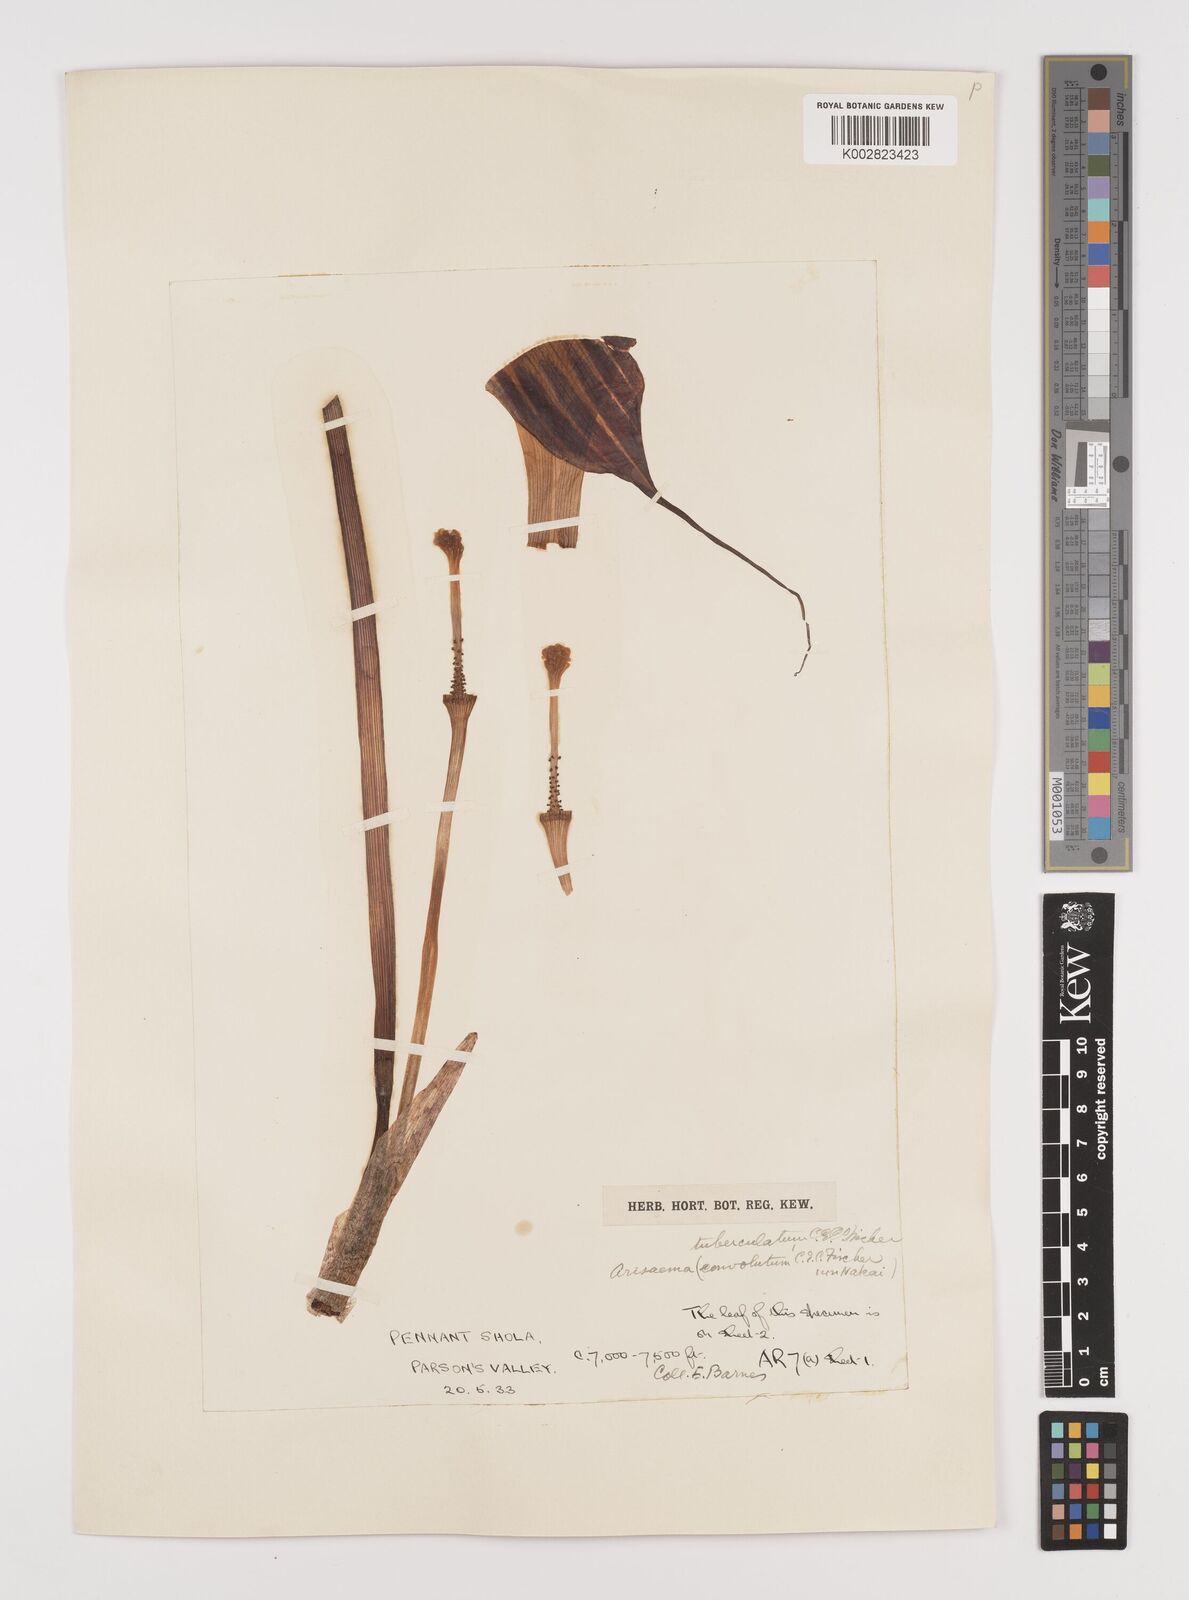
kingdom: Plantae
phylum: Tracheophyta
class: Liliopsida
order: Alismatales
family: Araceae
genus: Arisaema
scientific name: Arisaema tuberculatum
